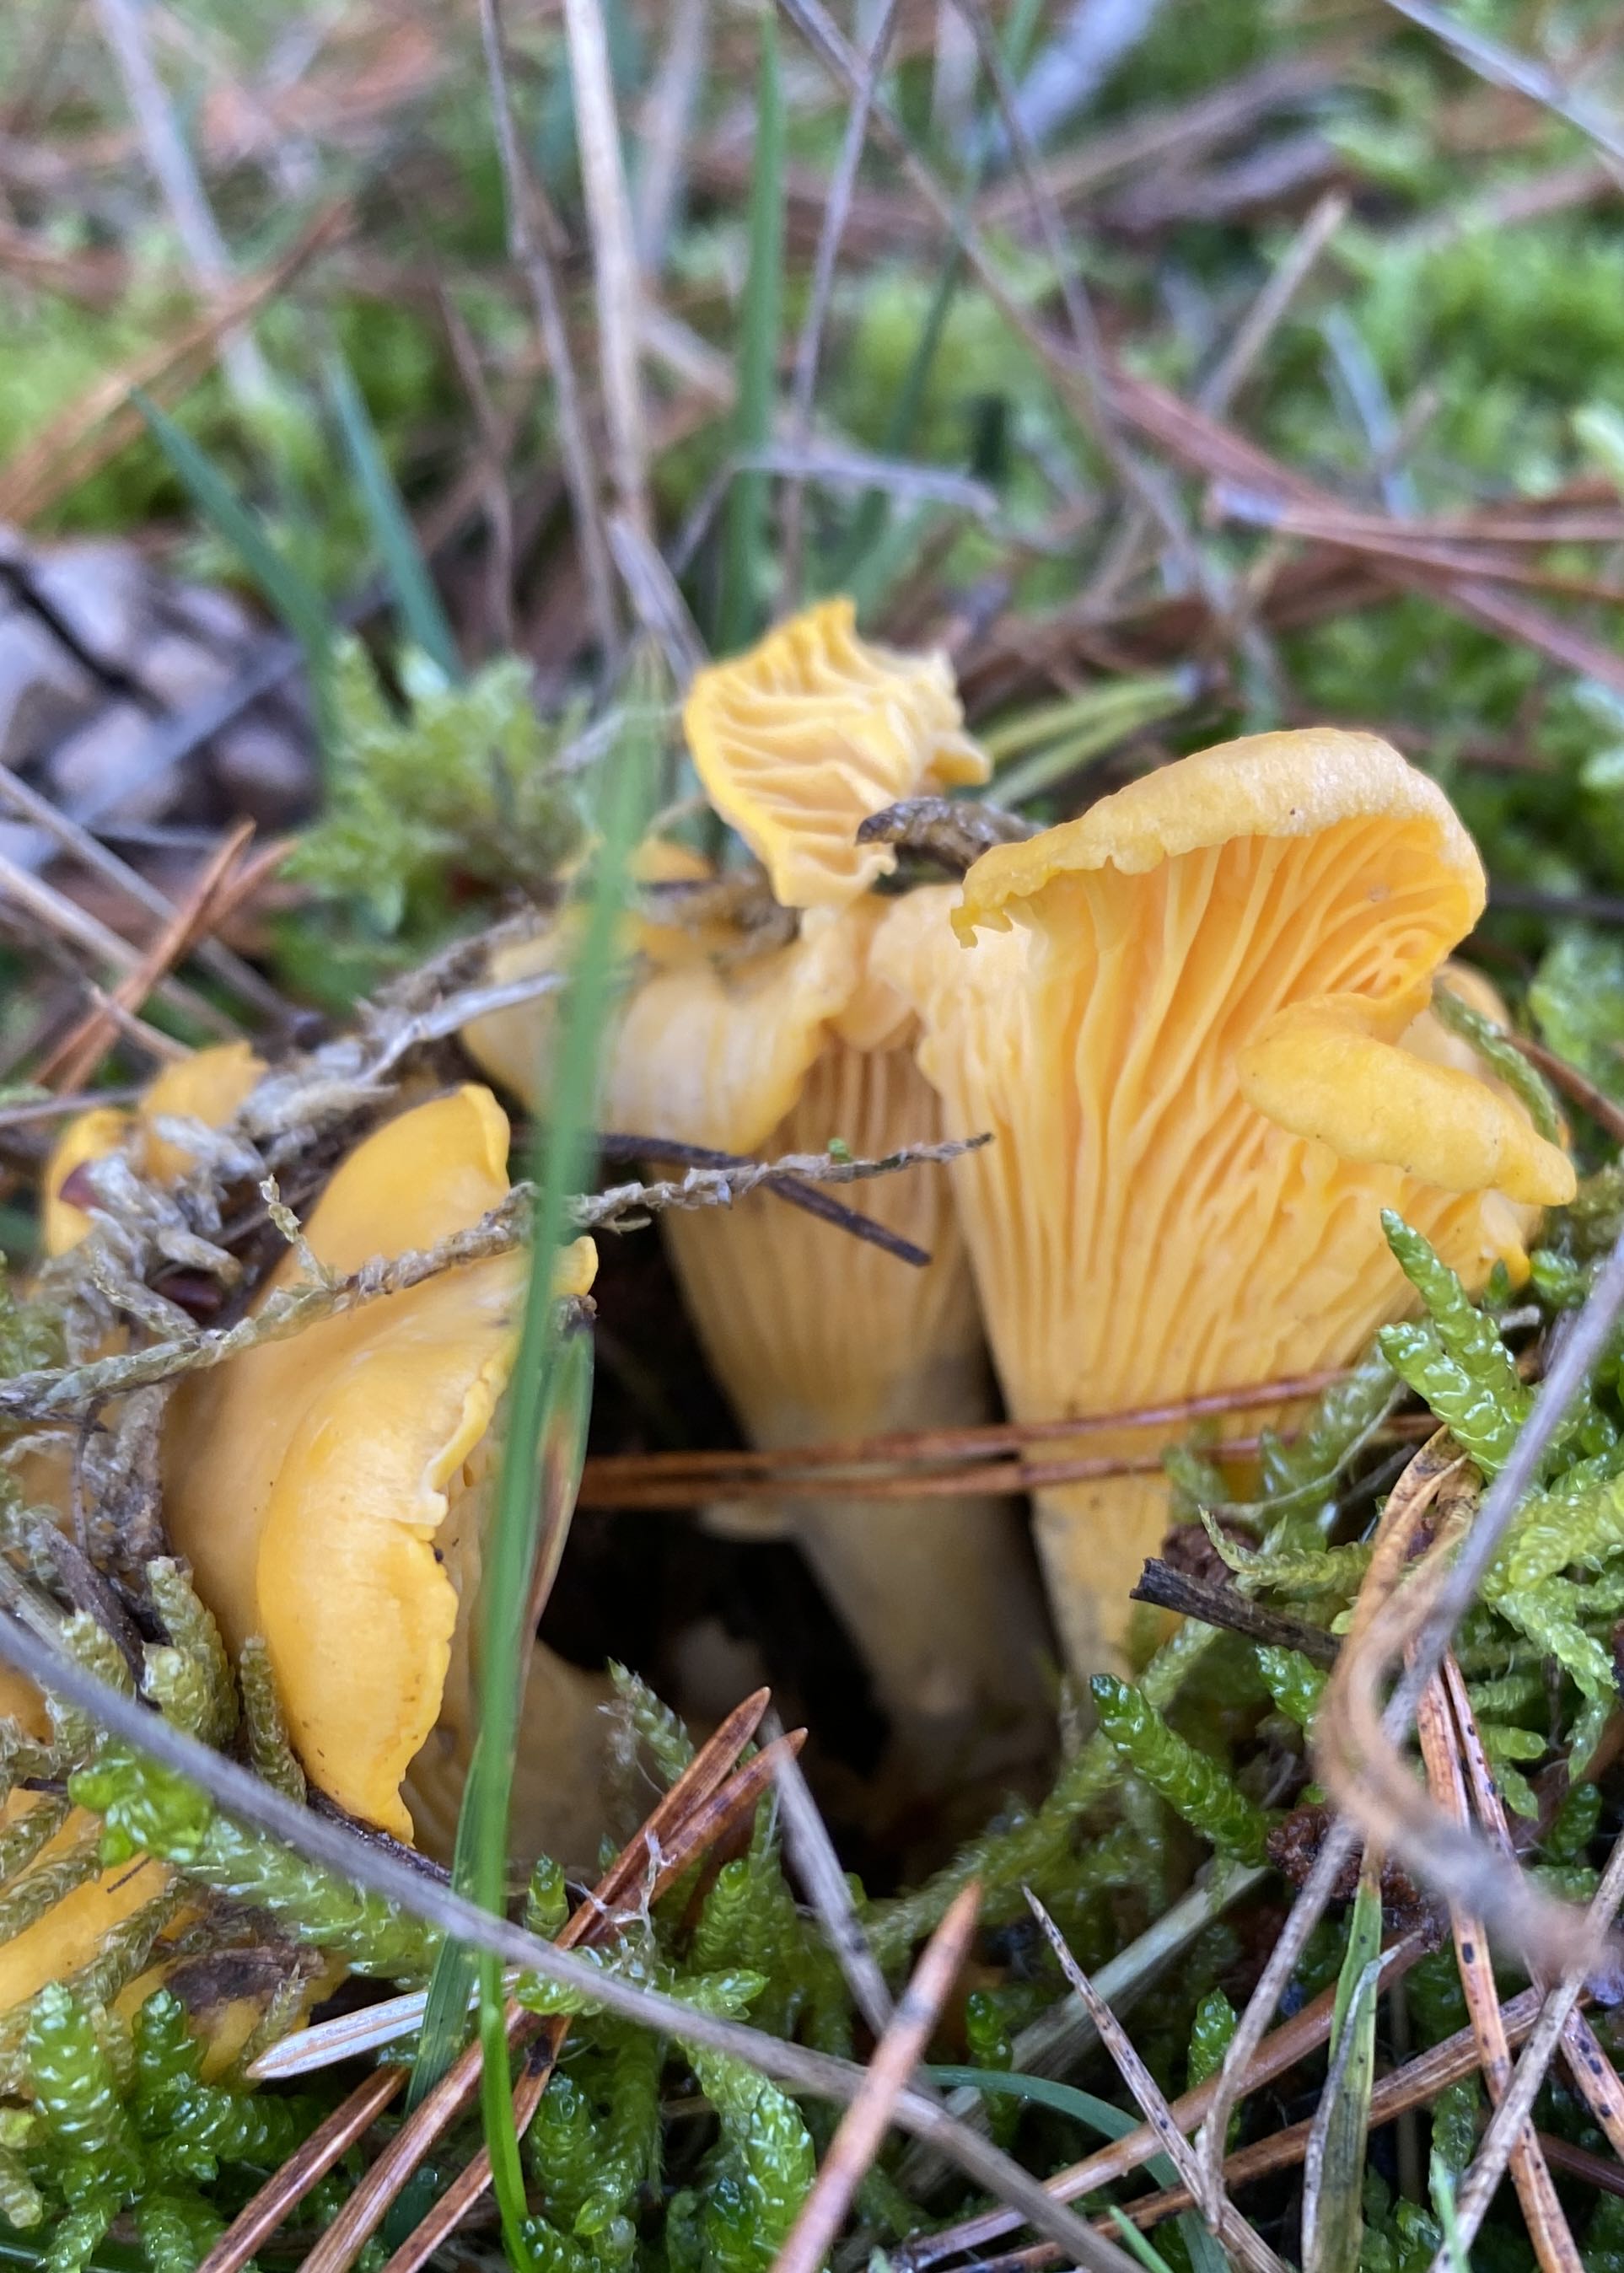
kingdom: Fungi
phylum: Basidiomycota
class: Agaricomycetes
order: Cantharellales
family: Hydnaceae
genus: Cantharellus
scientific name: Cantharellus cibarius
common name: almindelig kantarel
